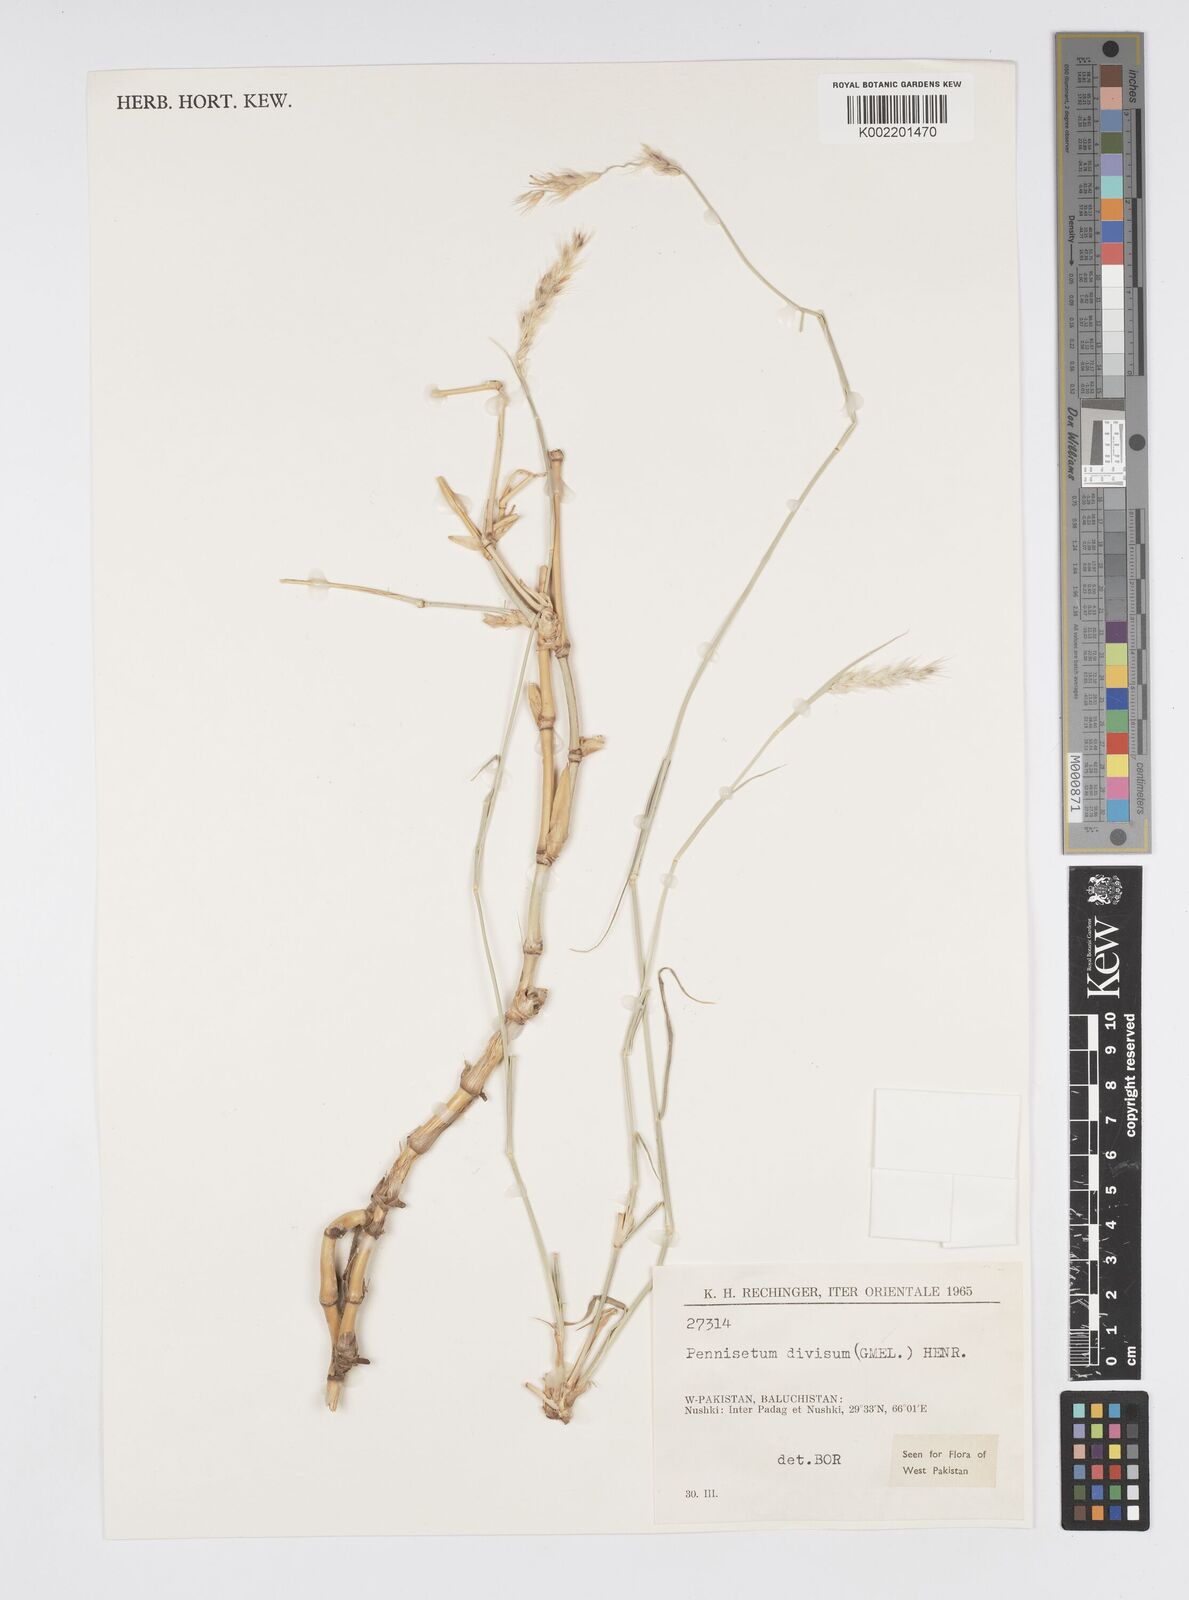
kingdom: Plantae
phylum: Tracheophyta
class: Liliopsida
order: Poales
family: Poaceae
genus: Cenchrus
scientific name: Cenchrus divisus
